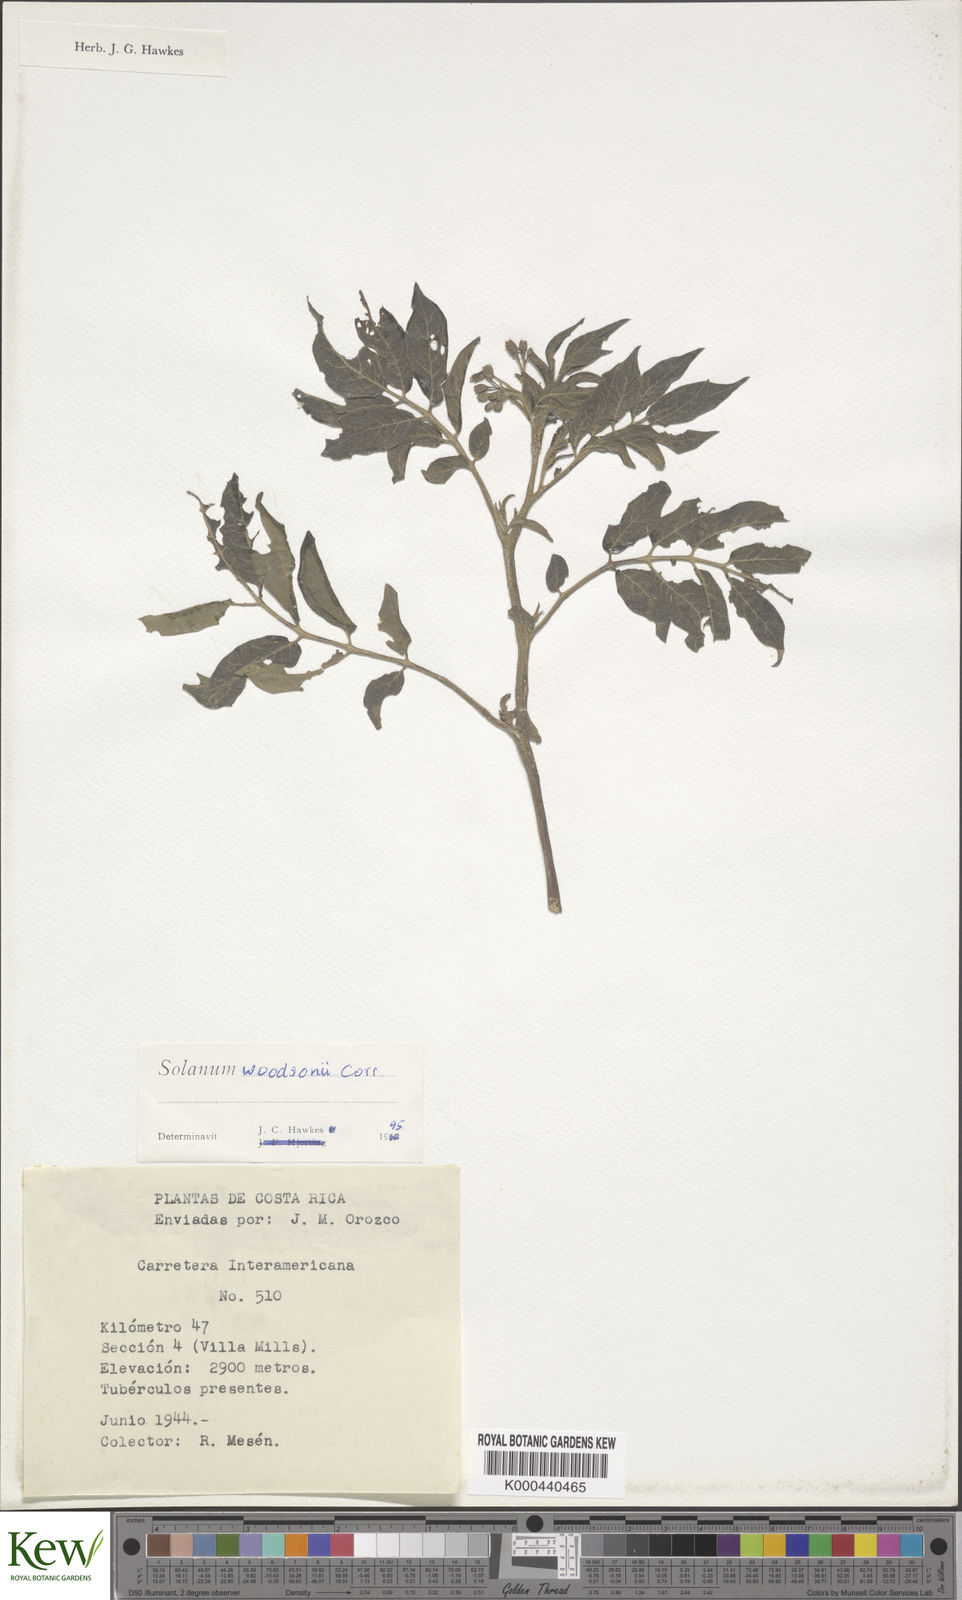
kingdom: Plantae
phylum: Tracheophyta
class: Magnoliopsida
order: Solanales
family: Solanaceae
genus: Solanum
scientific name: Solanum colombianum
